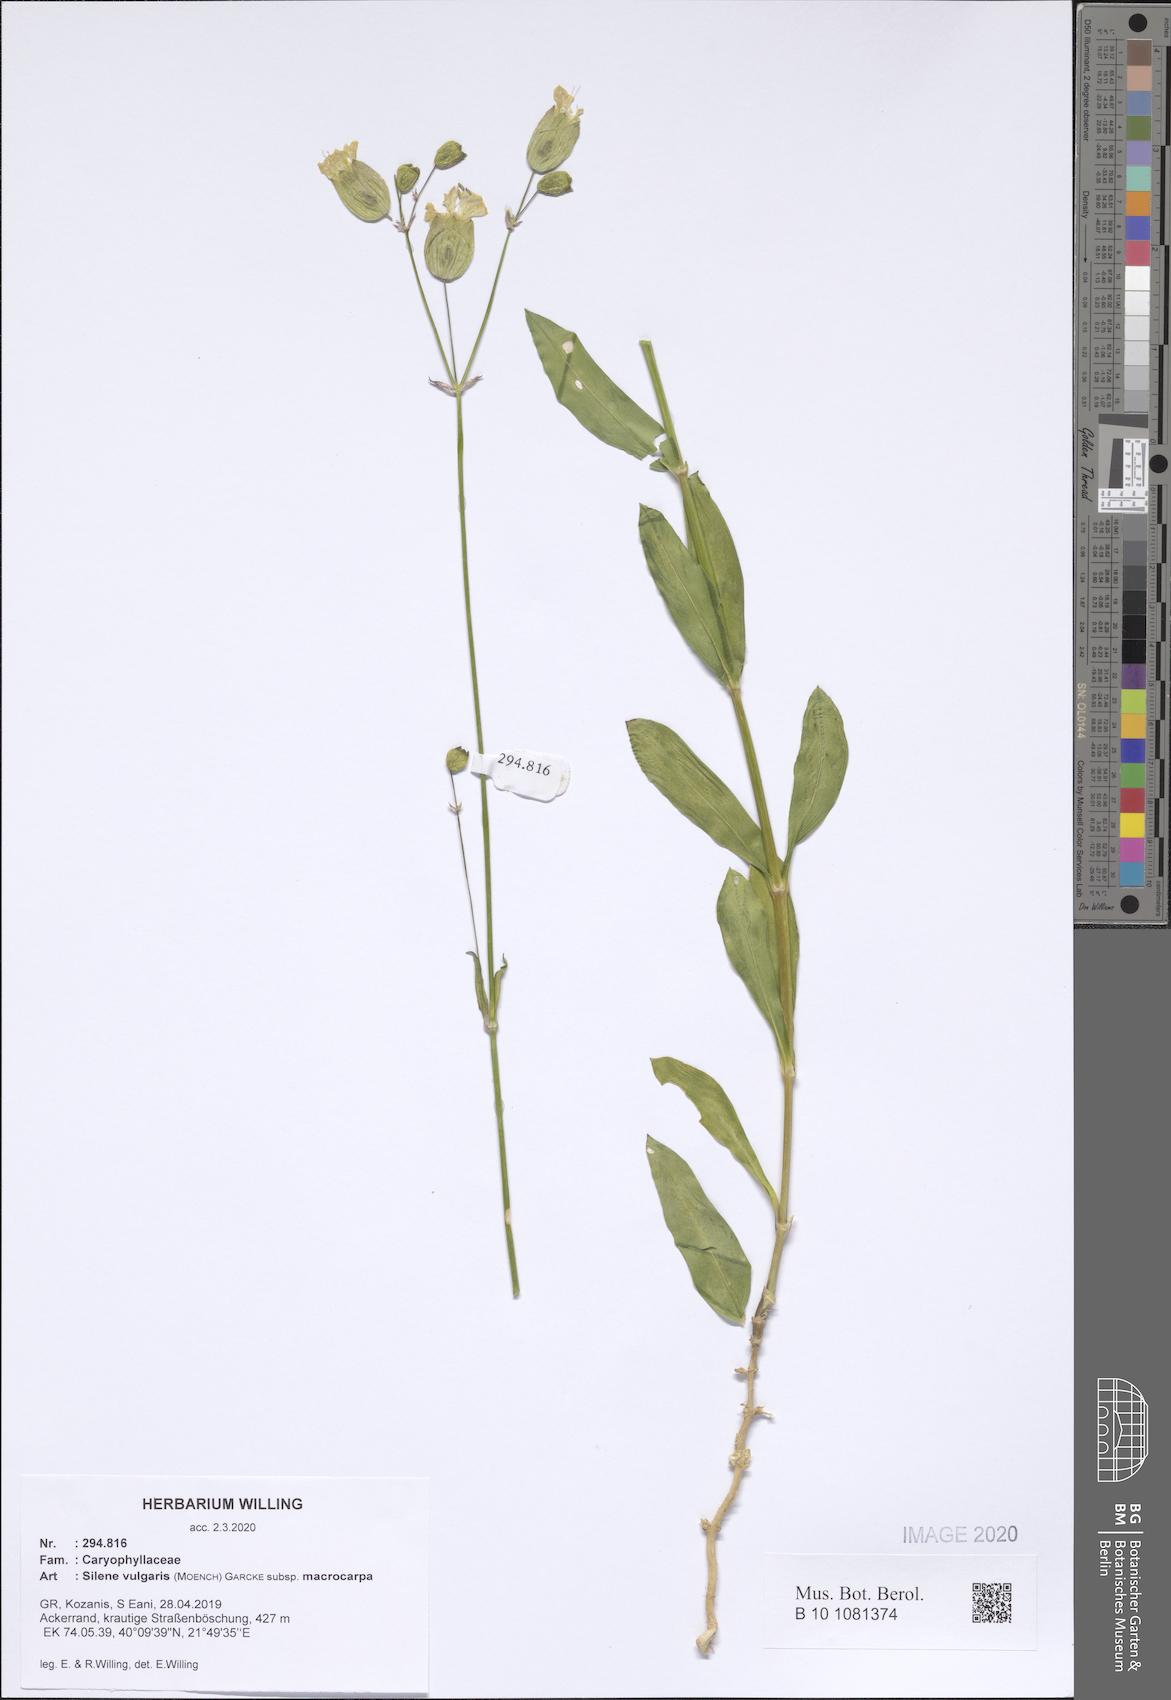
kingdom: Plantae
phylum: Tracheophyta
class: Magnoliopsida
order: Caryophyllales
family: Caryophyllaceae
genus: Silene
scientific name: Silene vulgaris
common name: Bladder campion
